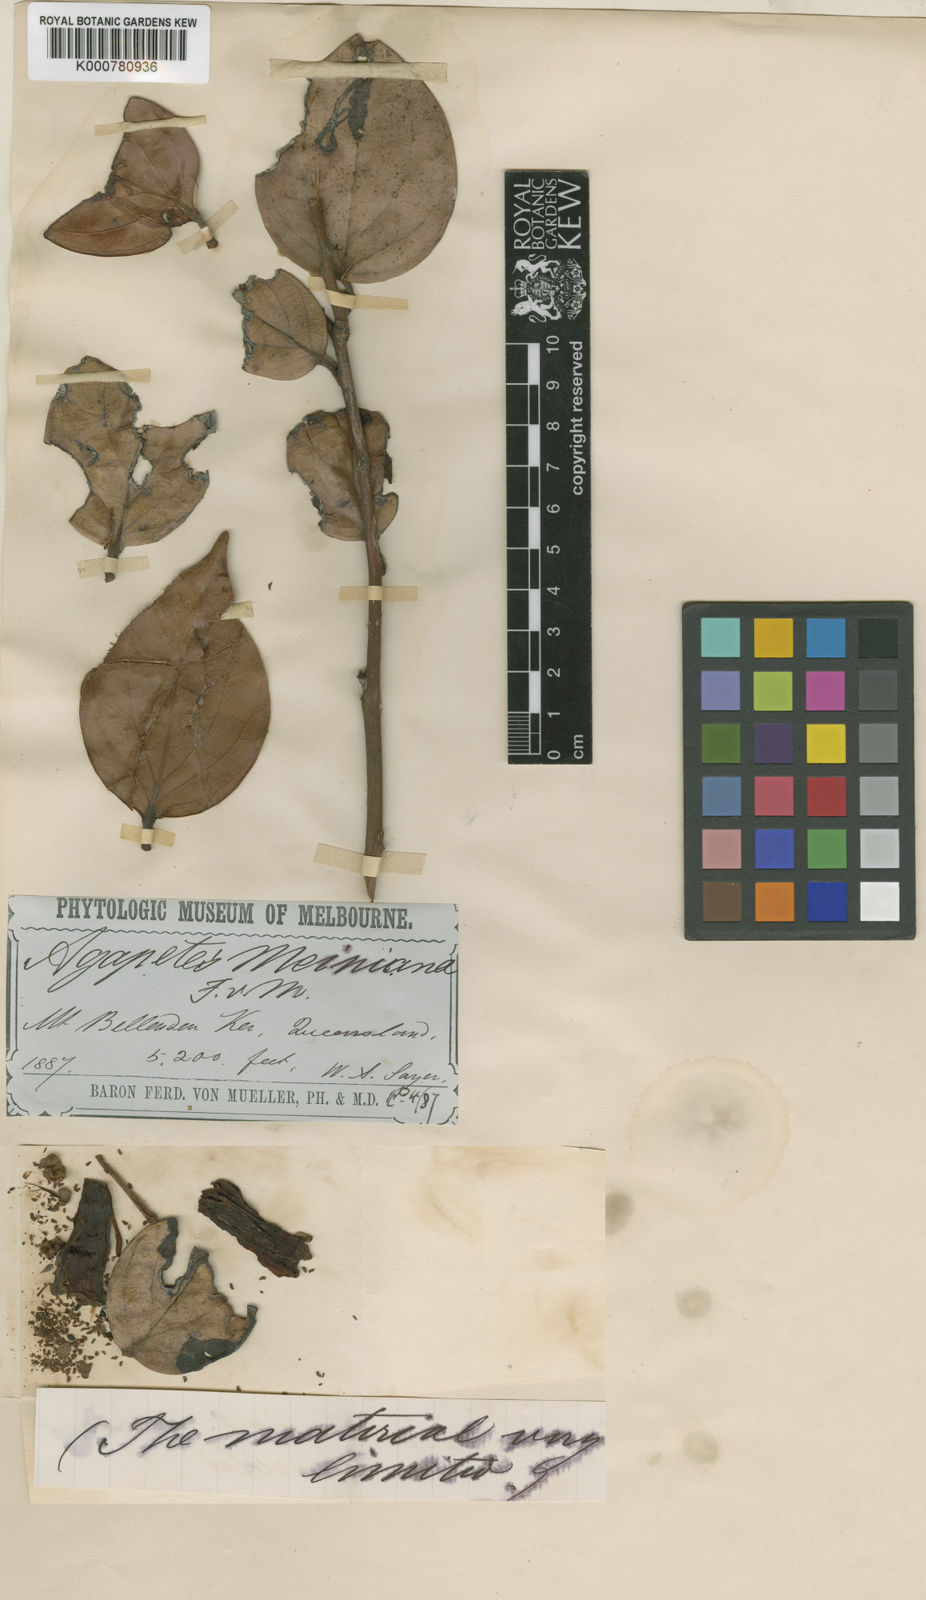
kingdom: Plantae
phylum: Tracheophyta
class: Magnoliopsida
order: Ericales
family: Ericaceae
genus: Paphia
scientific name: Paphia meiniana
